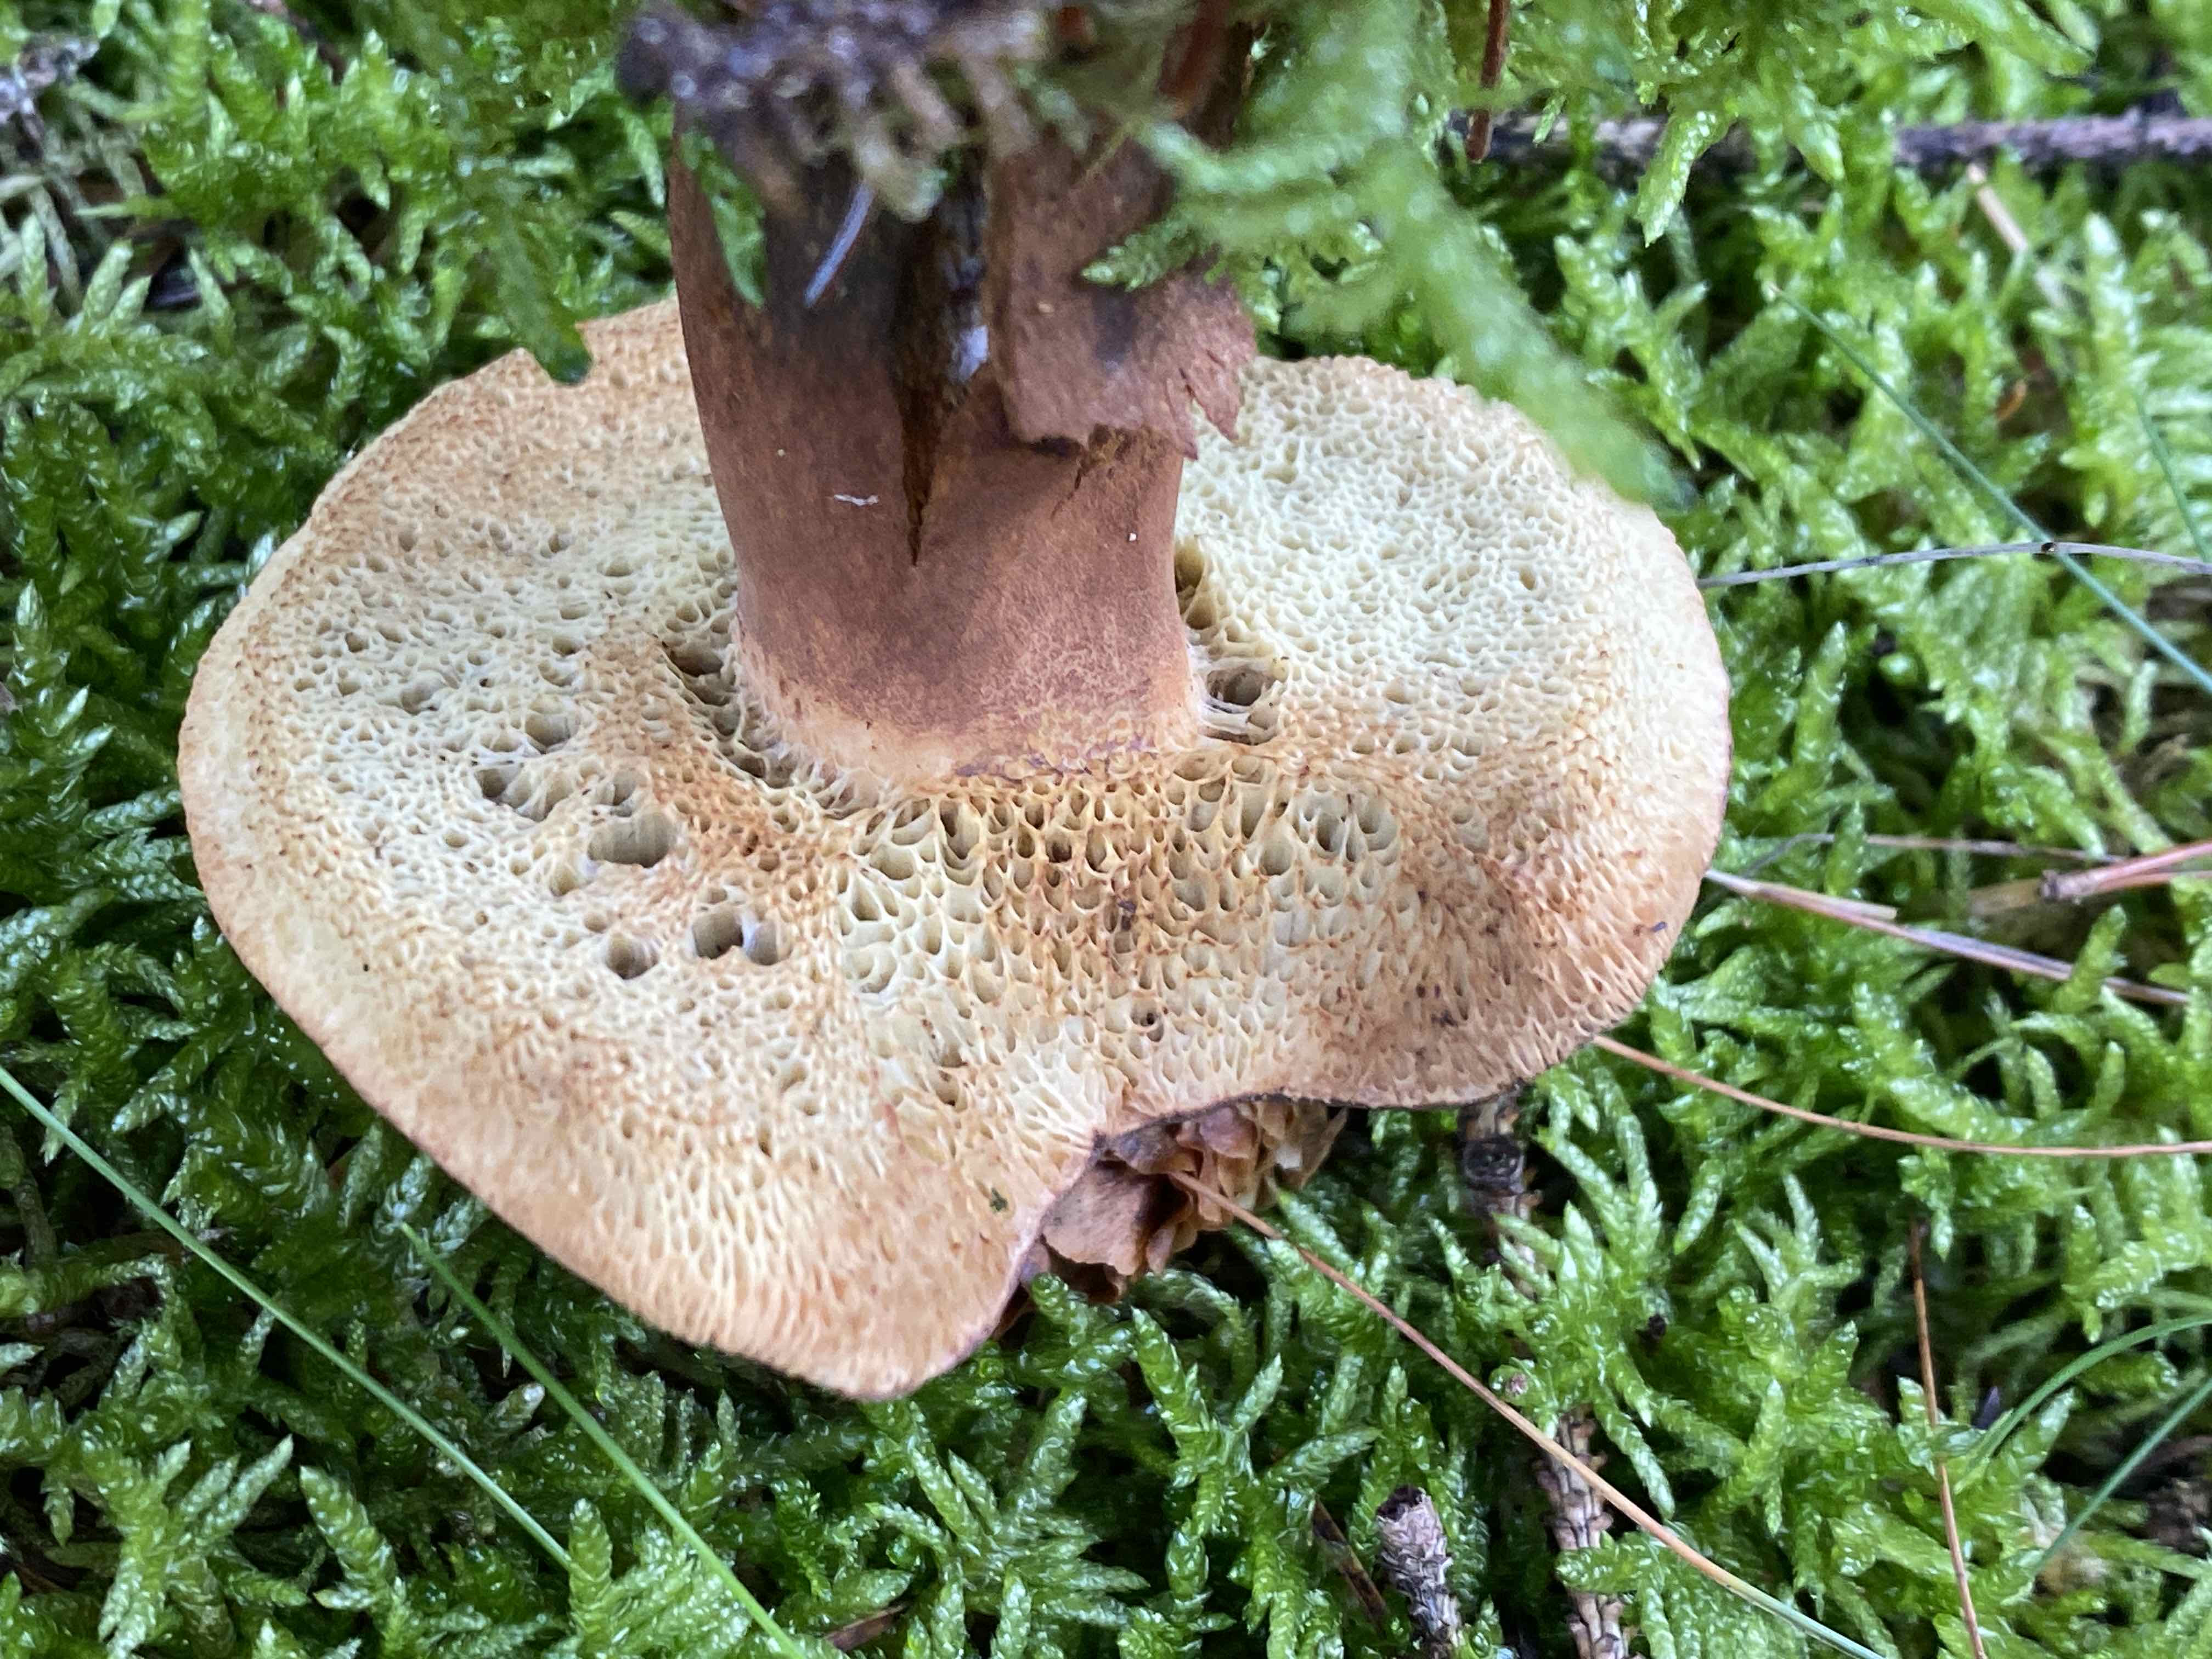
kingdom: Fungi
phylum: Basidiomycota
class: Agaricomycetes
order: Boletales
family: Boletaceae
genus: Imleria
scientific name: Imleria badia
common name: brunstokket rørhat
